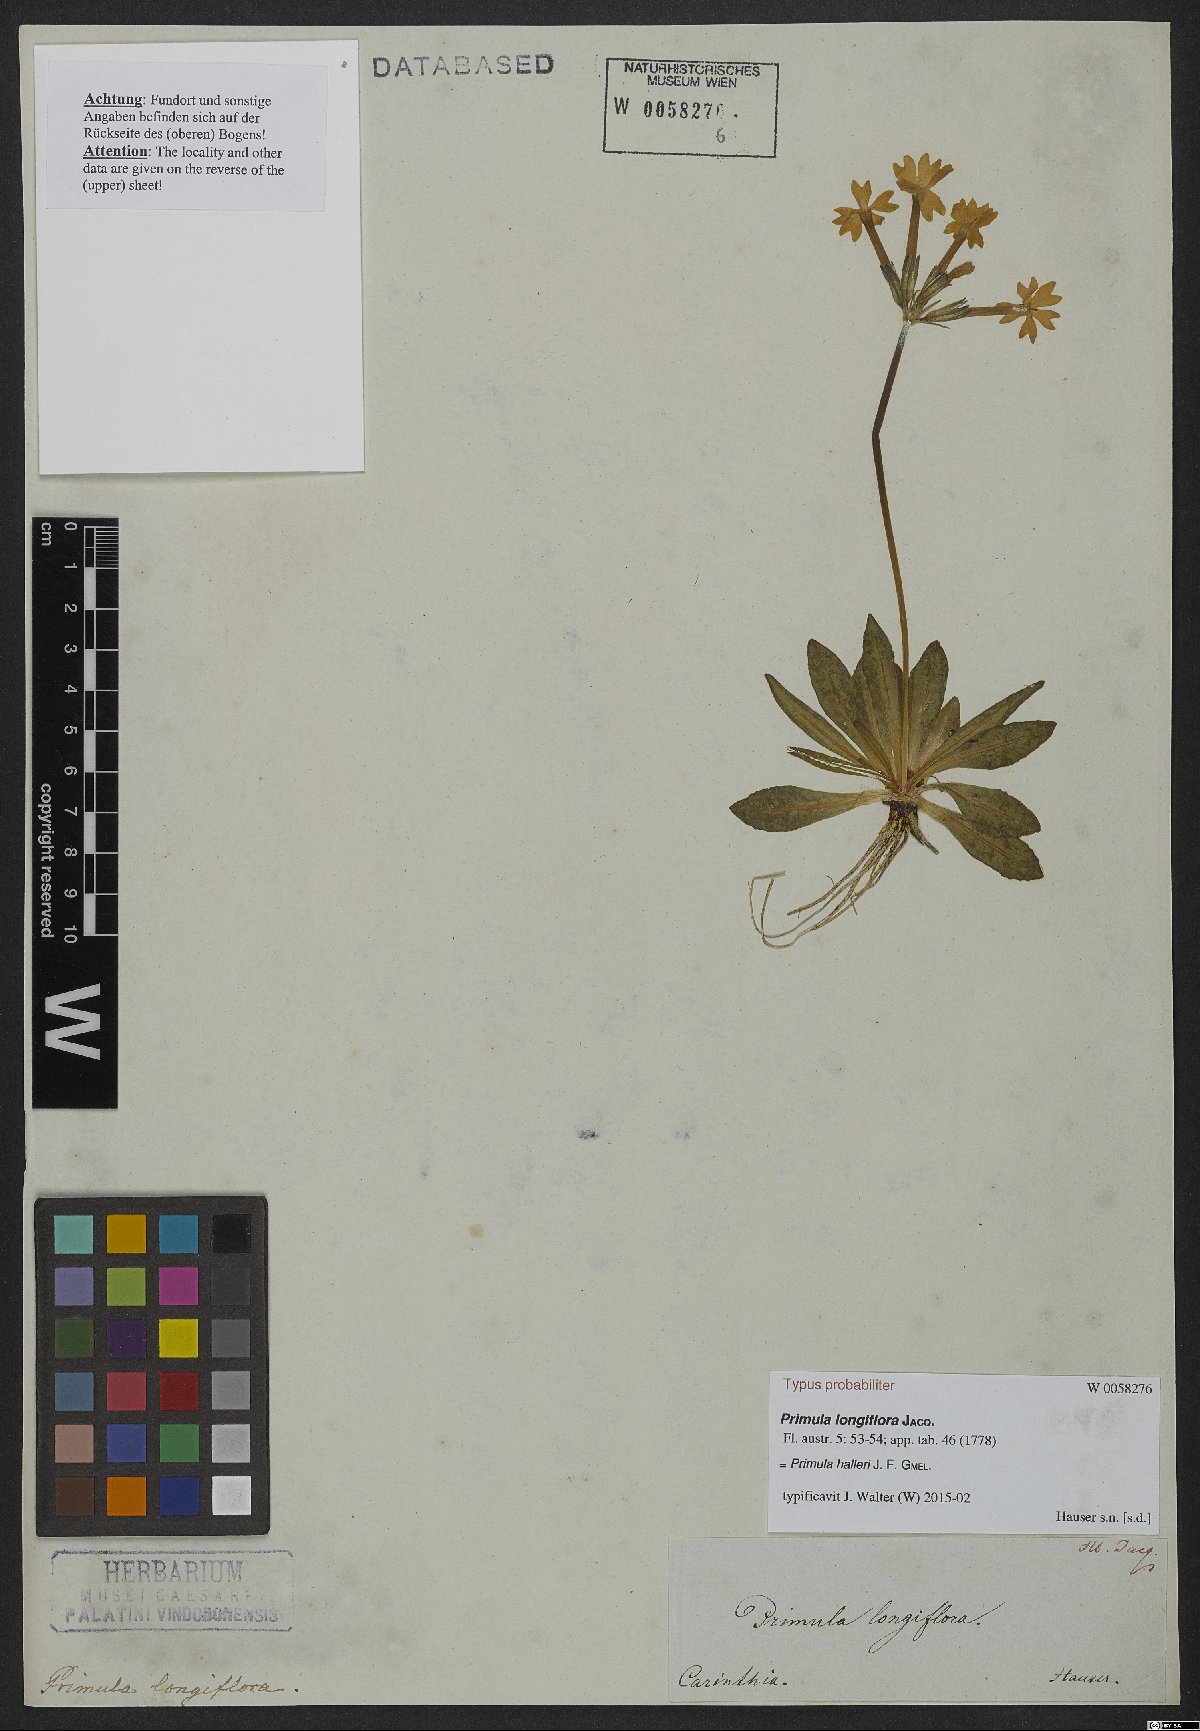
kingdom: Plantae
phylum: Tracheophyta
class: Magnoliopsida
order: Ericales
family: Primulaceae
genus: Primula
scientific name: Primula halleri
